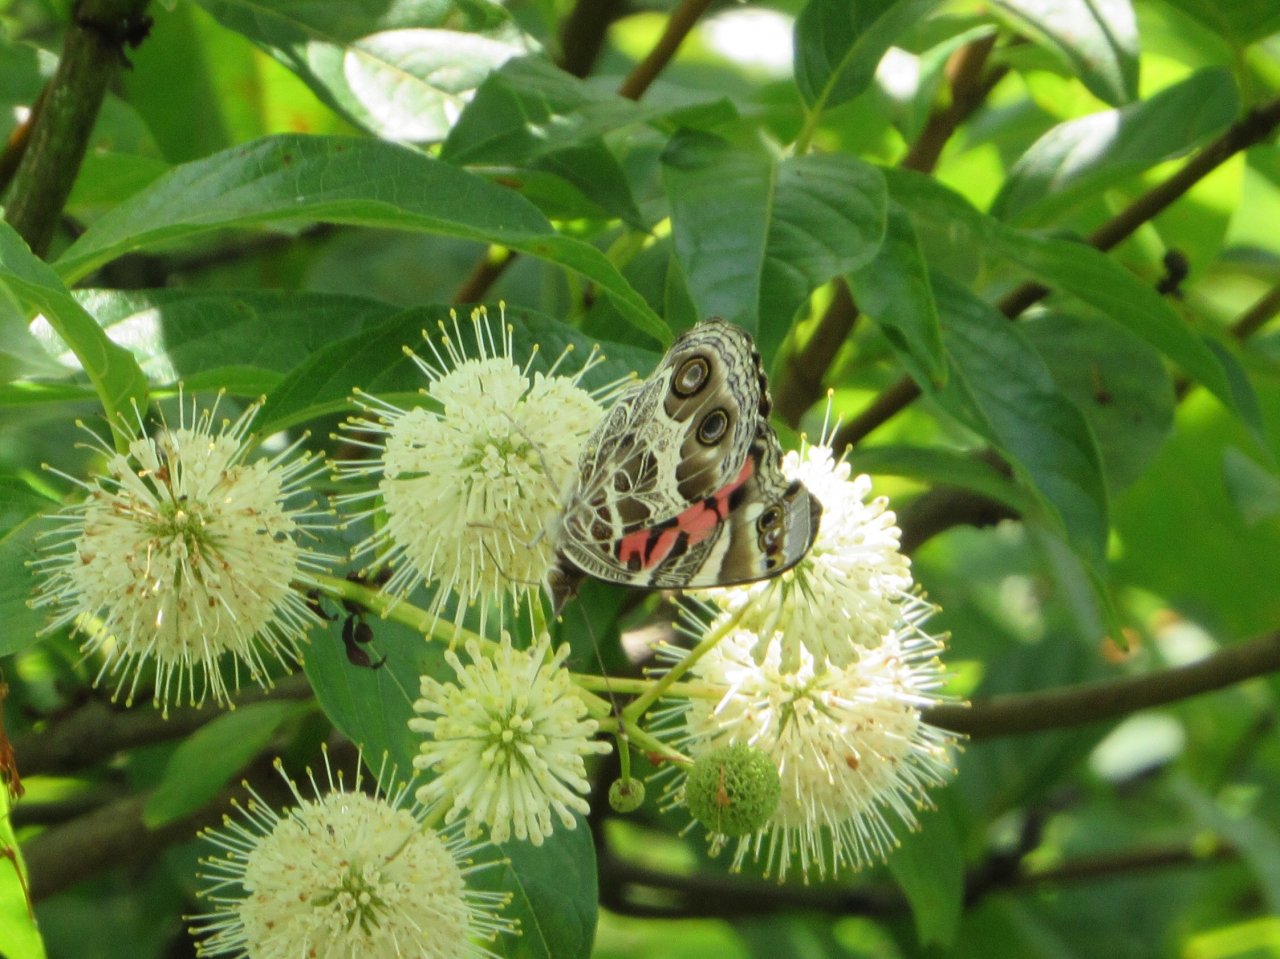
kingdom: Animalia
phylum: Arthropoda
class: Insecta
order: Lepidoptera
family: Nymphalidae
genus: Vanessa
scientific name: Vanessa virginiensis
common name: American Lady
